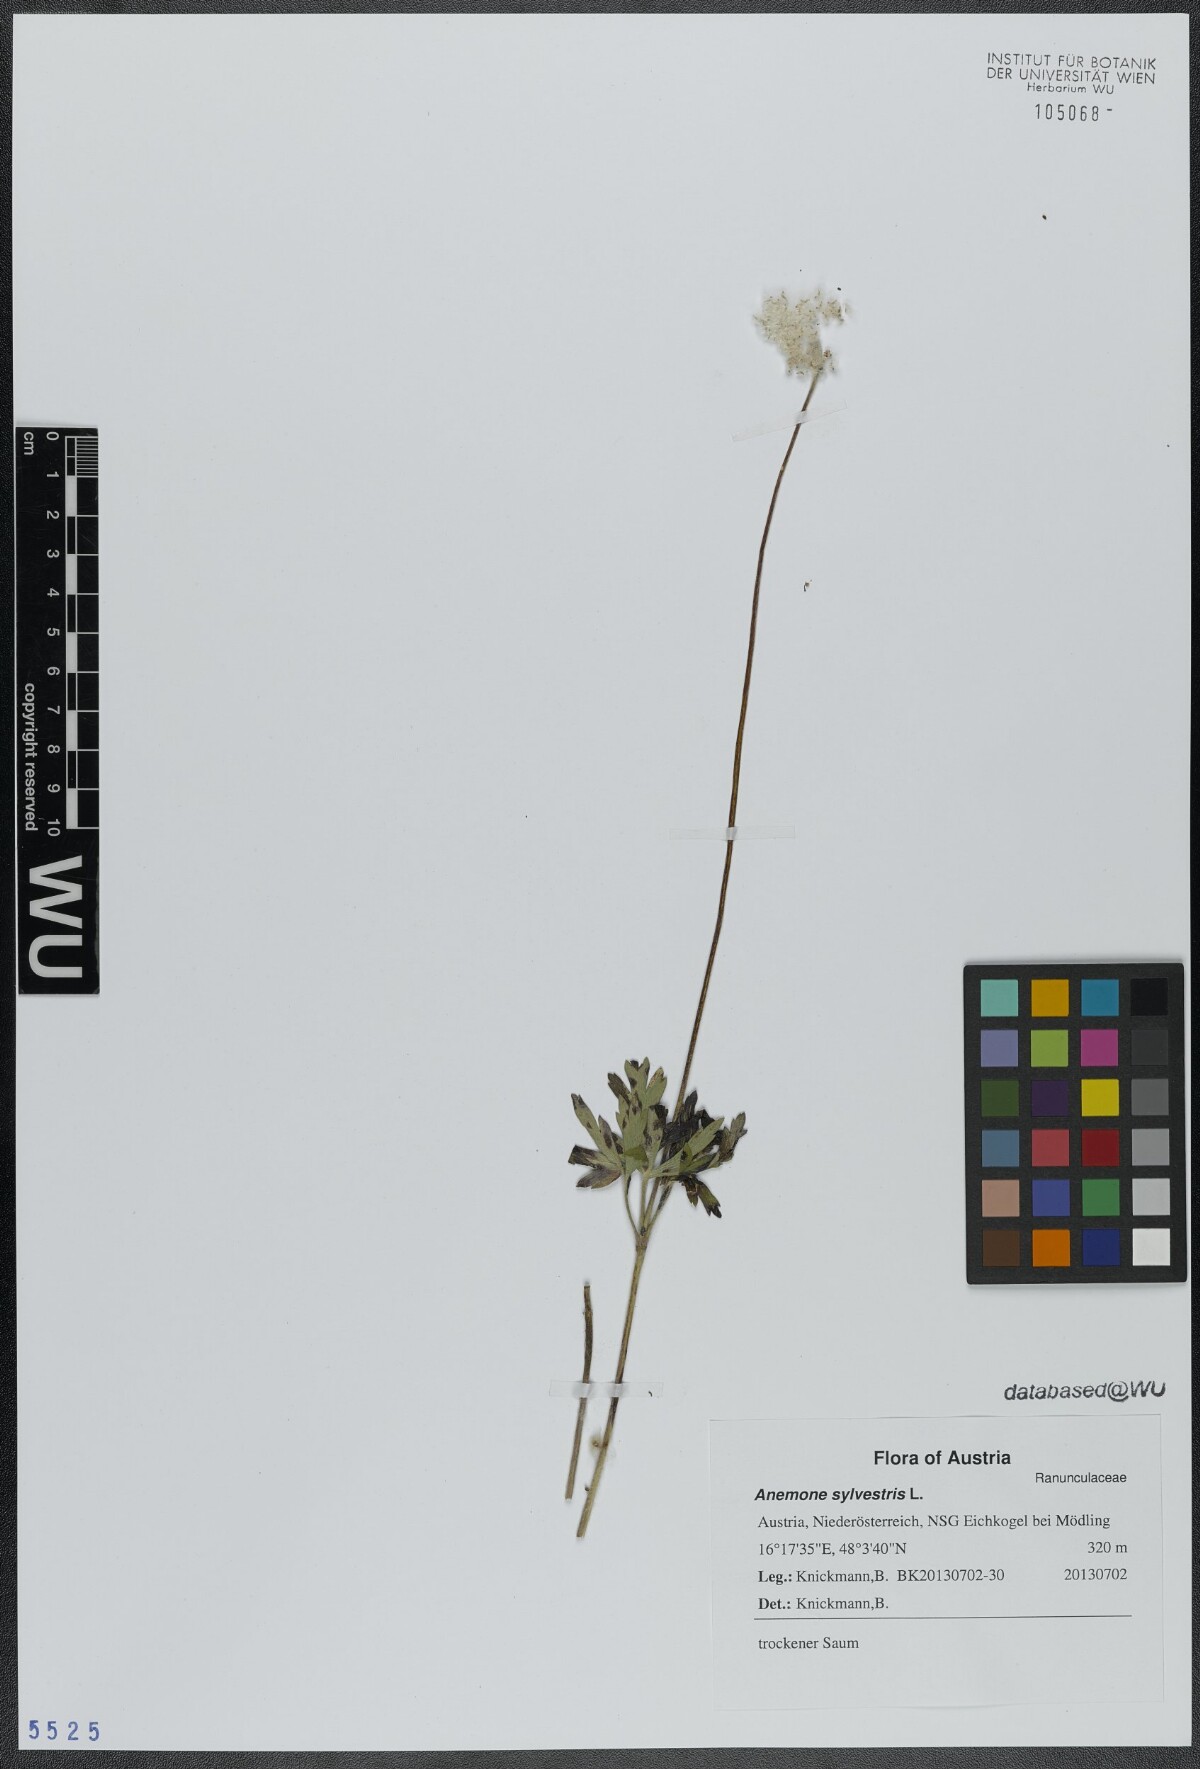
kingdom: Plantae
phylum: Tracheophyta
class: Magnoliopsida
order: Ranunculales
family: Ranunculaceae
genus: Anemone
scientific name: Anemone sylvestris
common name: Snowdrop anemone
